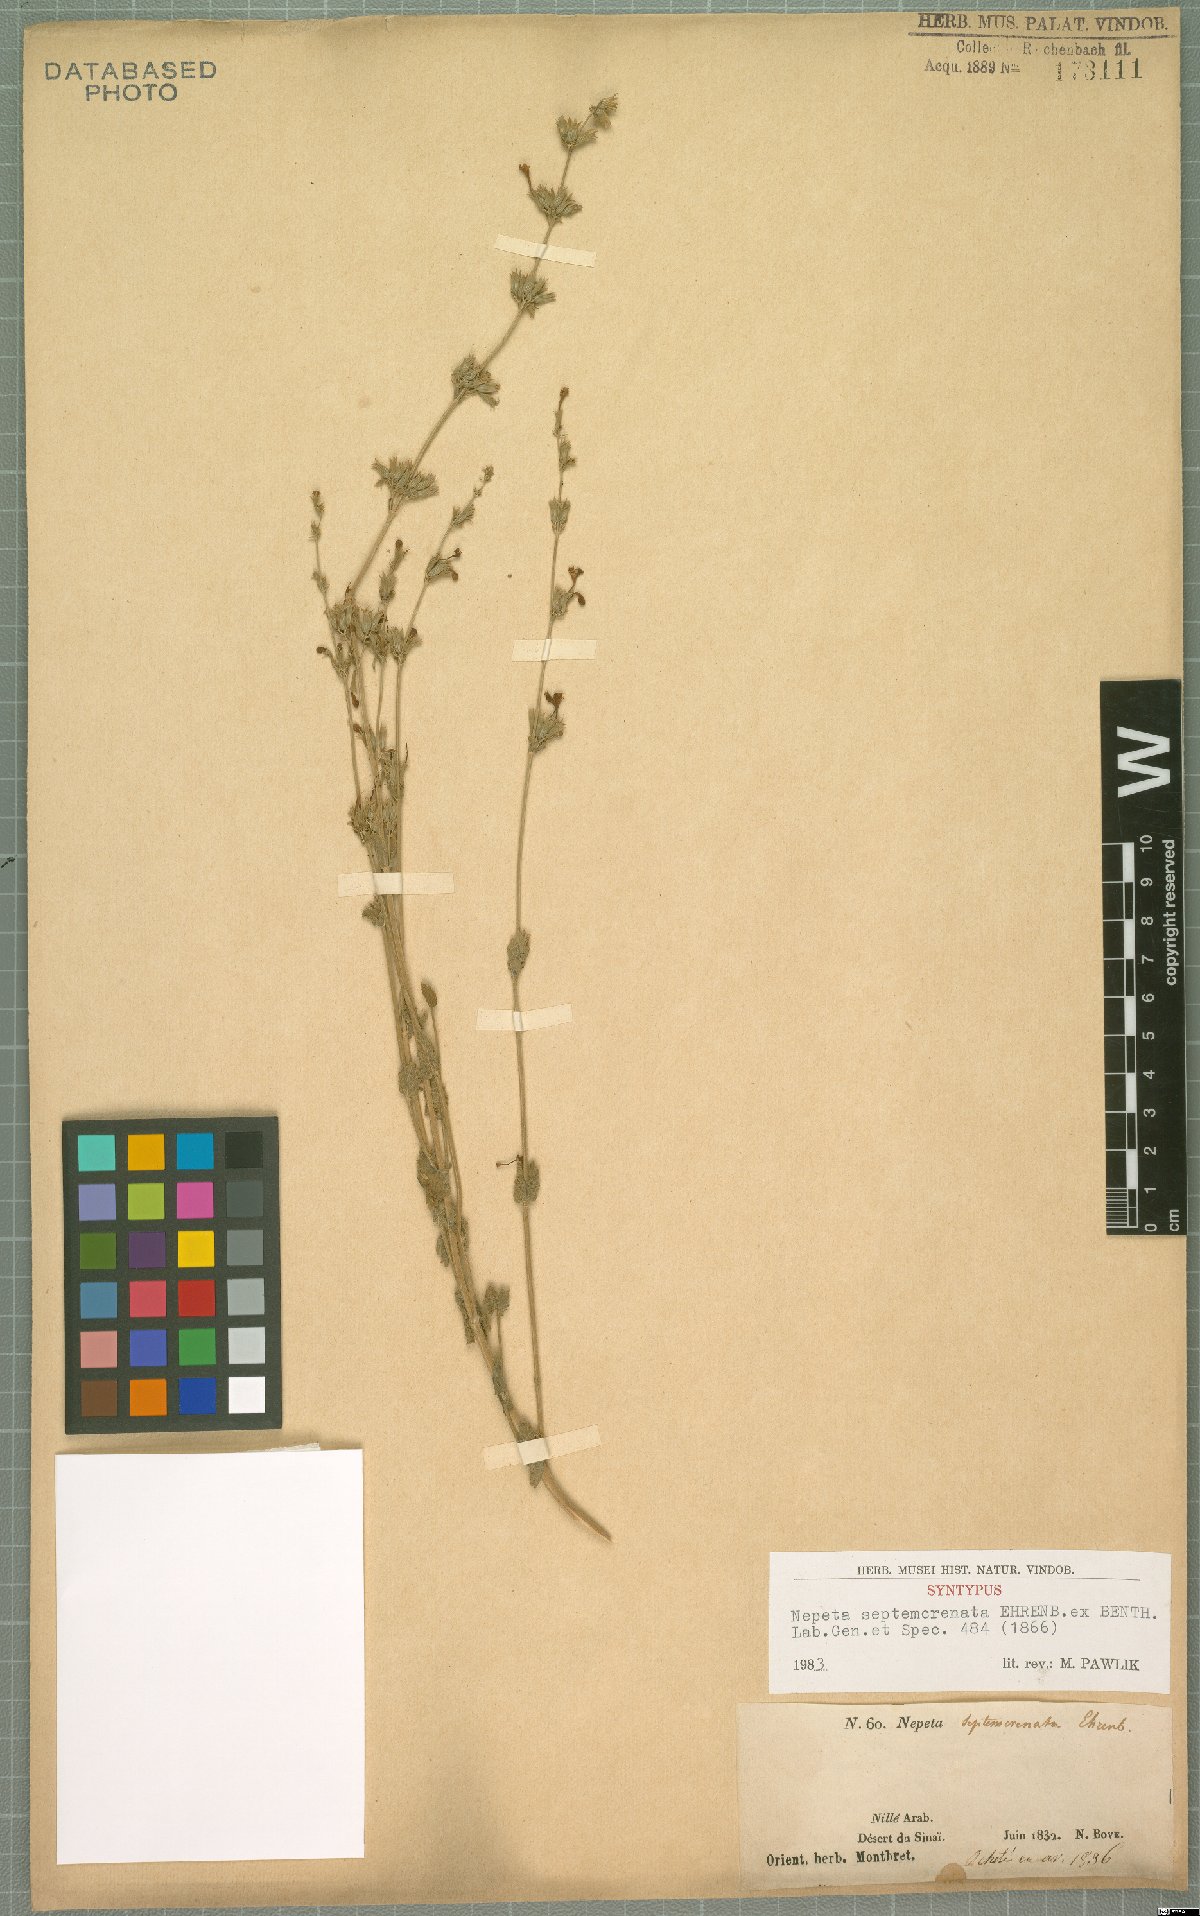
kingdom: Plantae
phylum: Tracheophyta
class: Magnoliopsida
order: Lamiales
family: Lamiaceae
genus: Nepeta
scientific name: Nepeta septemcrenata
